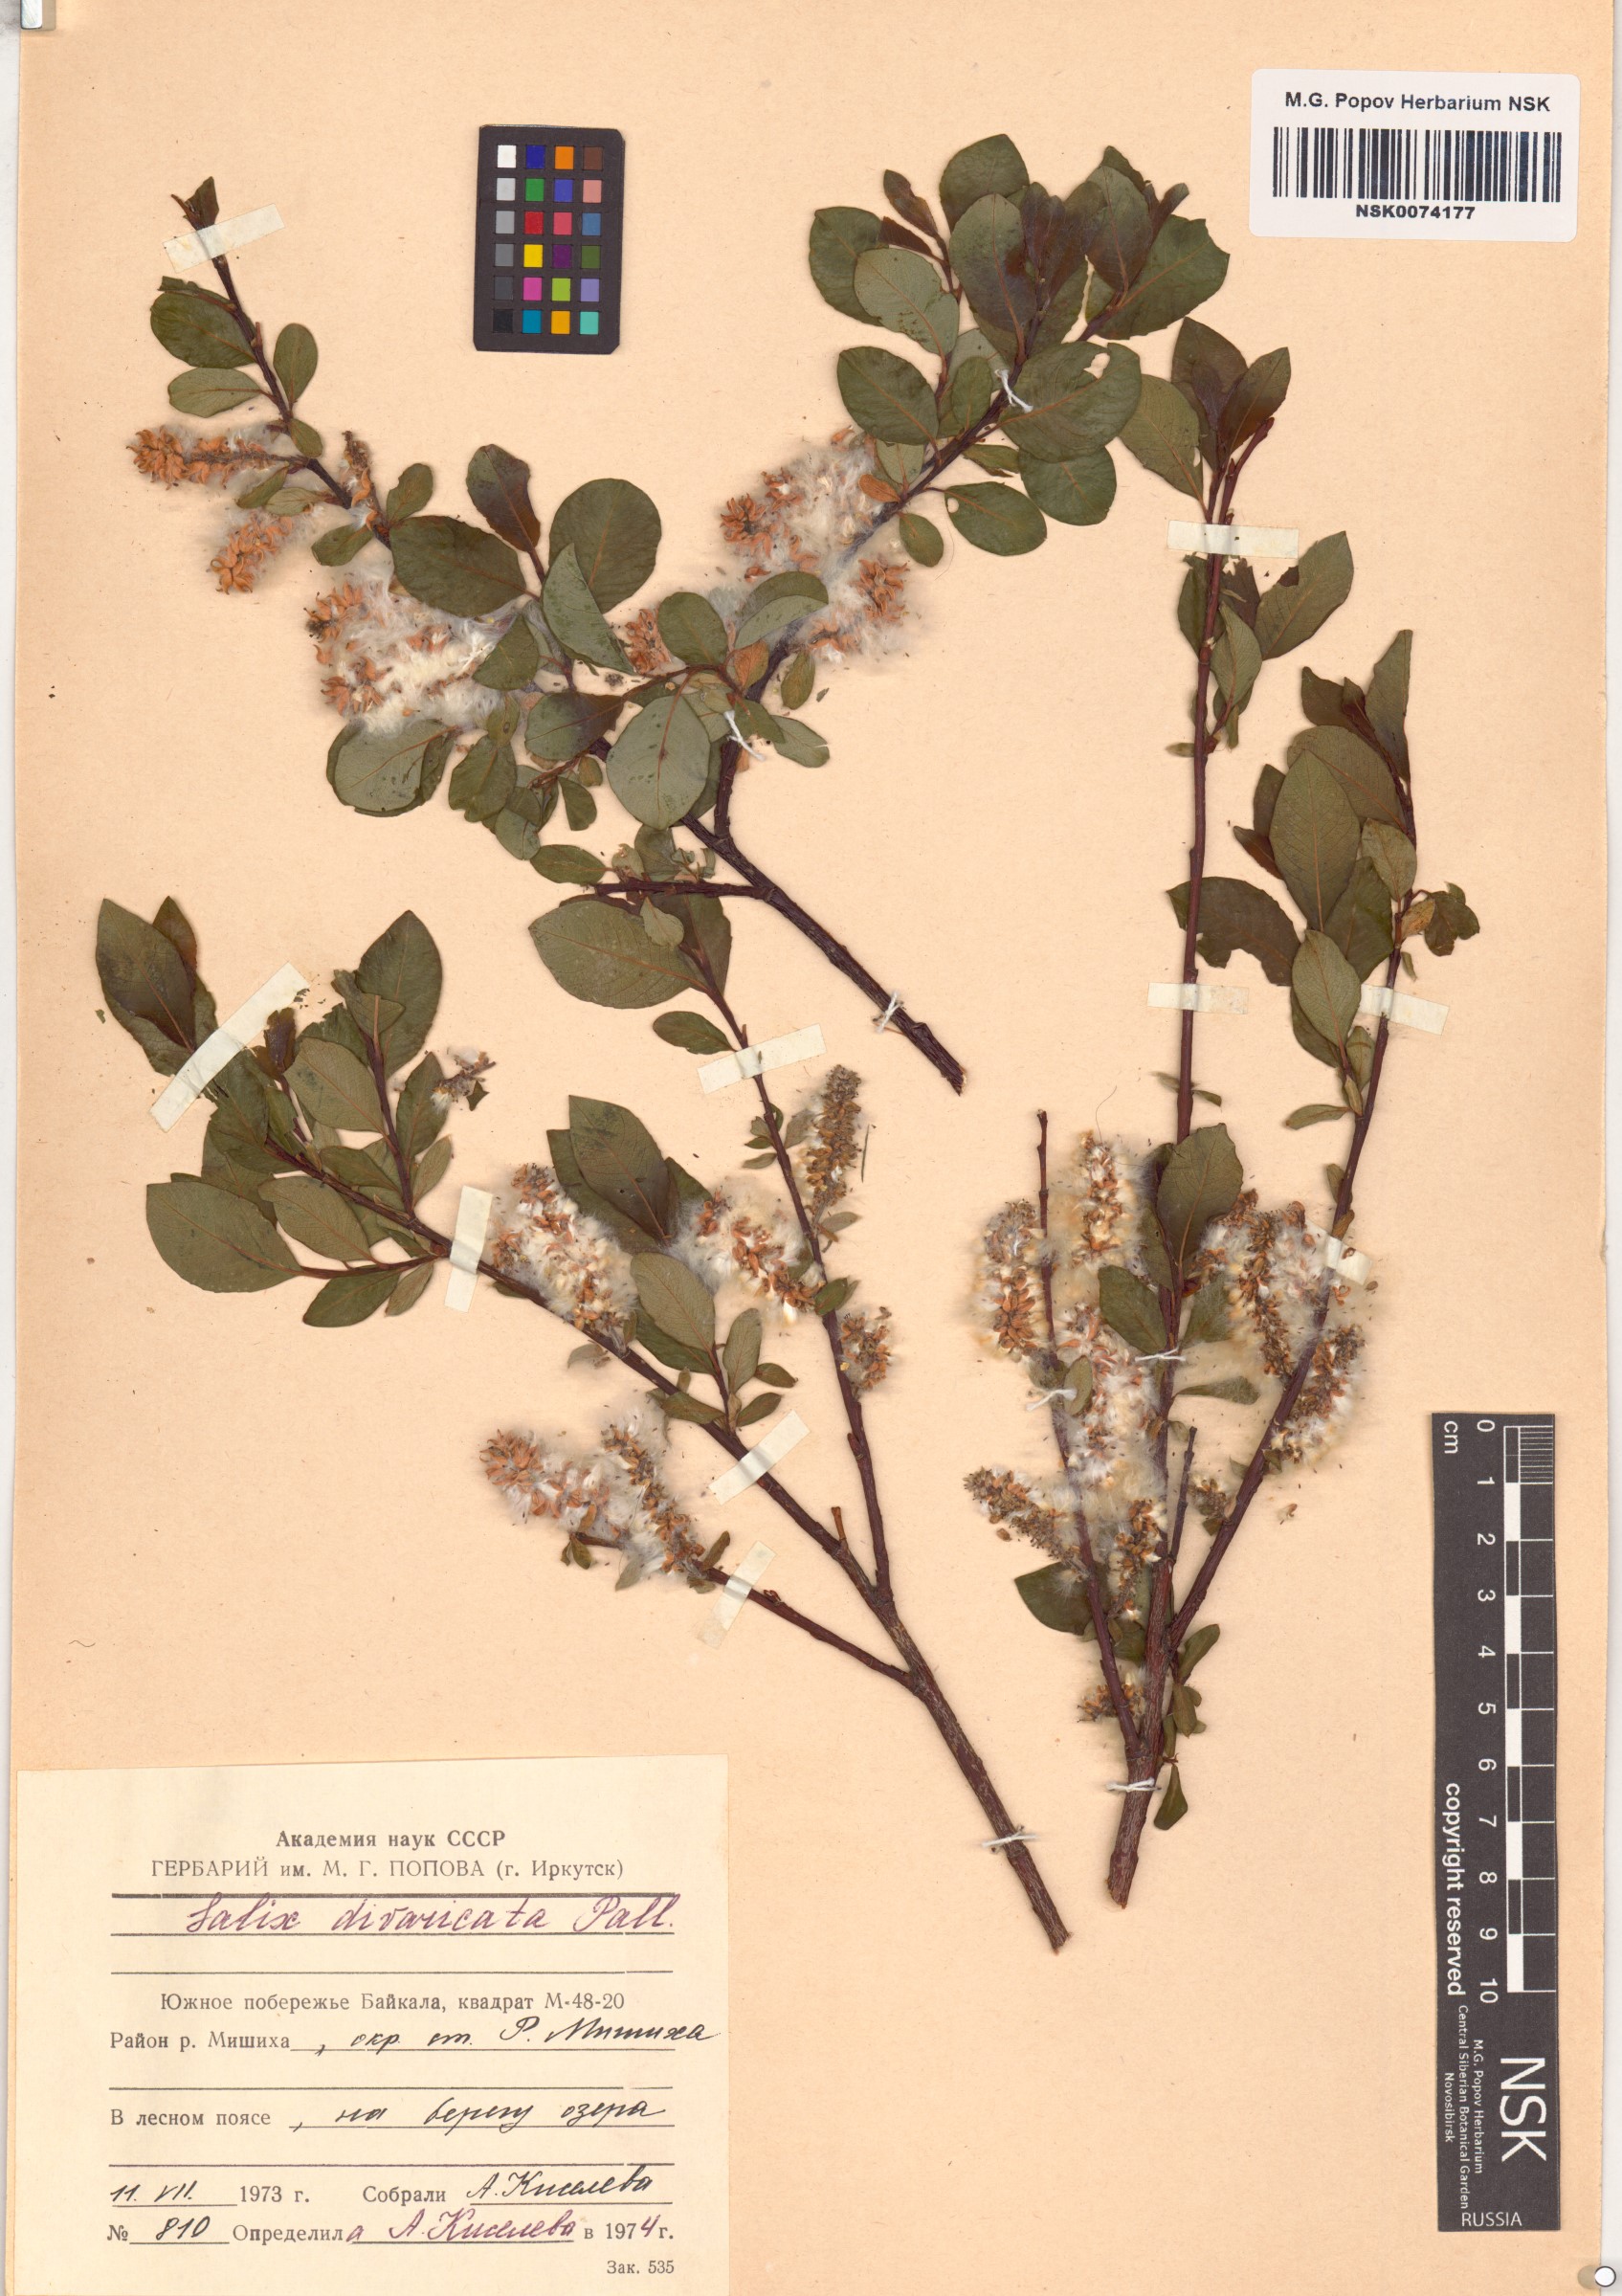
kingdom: Plantae
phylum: Tracheophyta
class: Magnoliopsida
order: Malpighiales
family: Salicaceae
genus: Salix
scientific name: Salix divaricata
